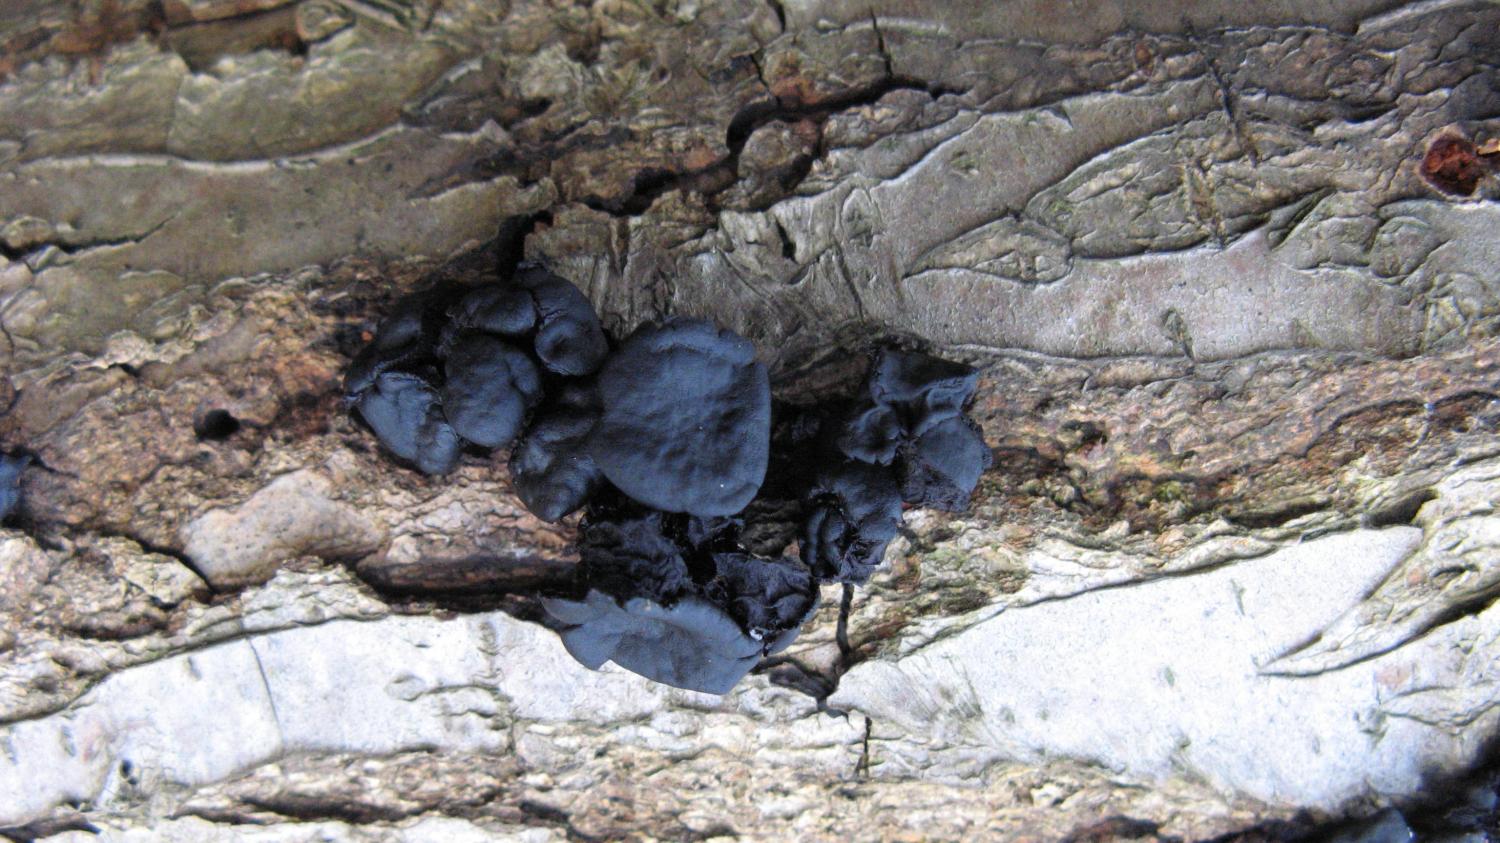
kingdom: Fungi
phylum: Ascomycota
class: Leotiomycetes
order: Phacidiales
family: Phacidiaceae
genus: Bulgaria
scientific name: Bulgaria inquinans
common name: afsmittende topsvamp
